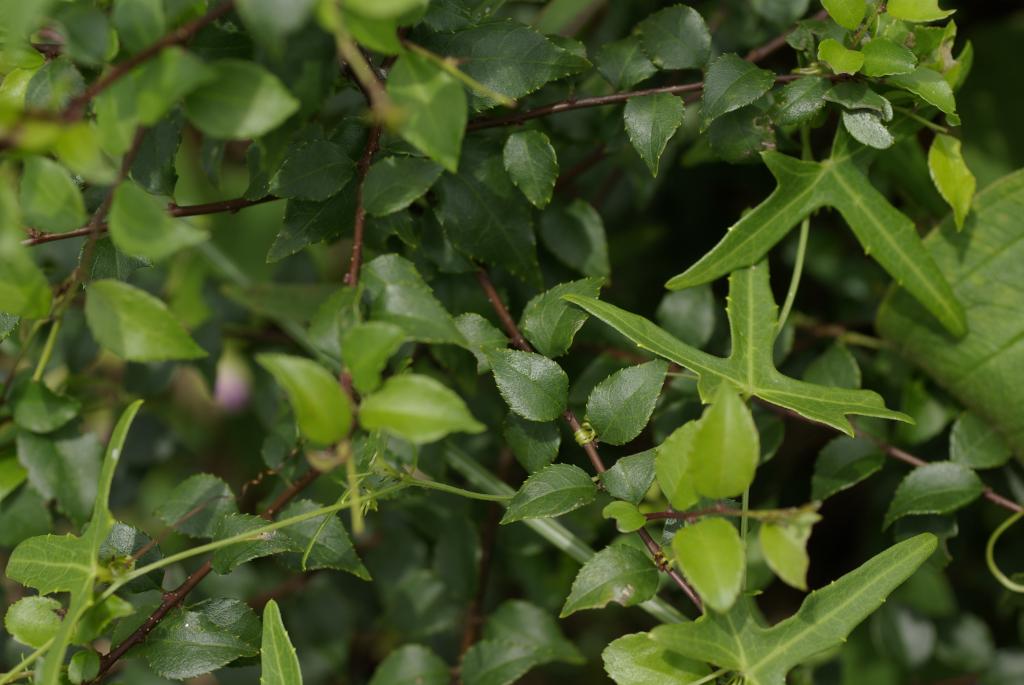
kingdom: Plantae
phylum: Tracheophyta
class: Magnoliopsida
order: Aquifoliales
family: Aquifoliaceae
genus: Ilex
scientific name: Ilex asprella
